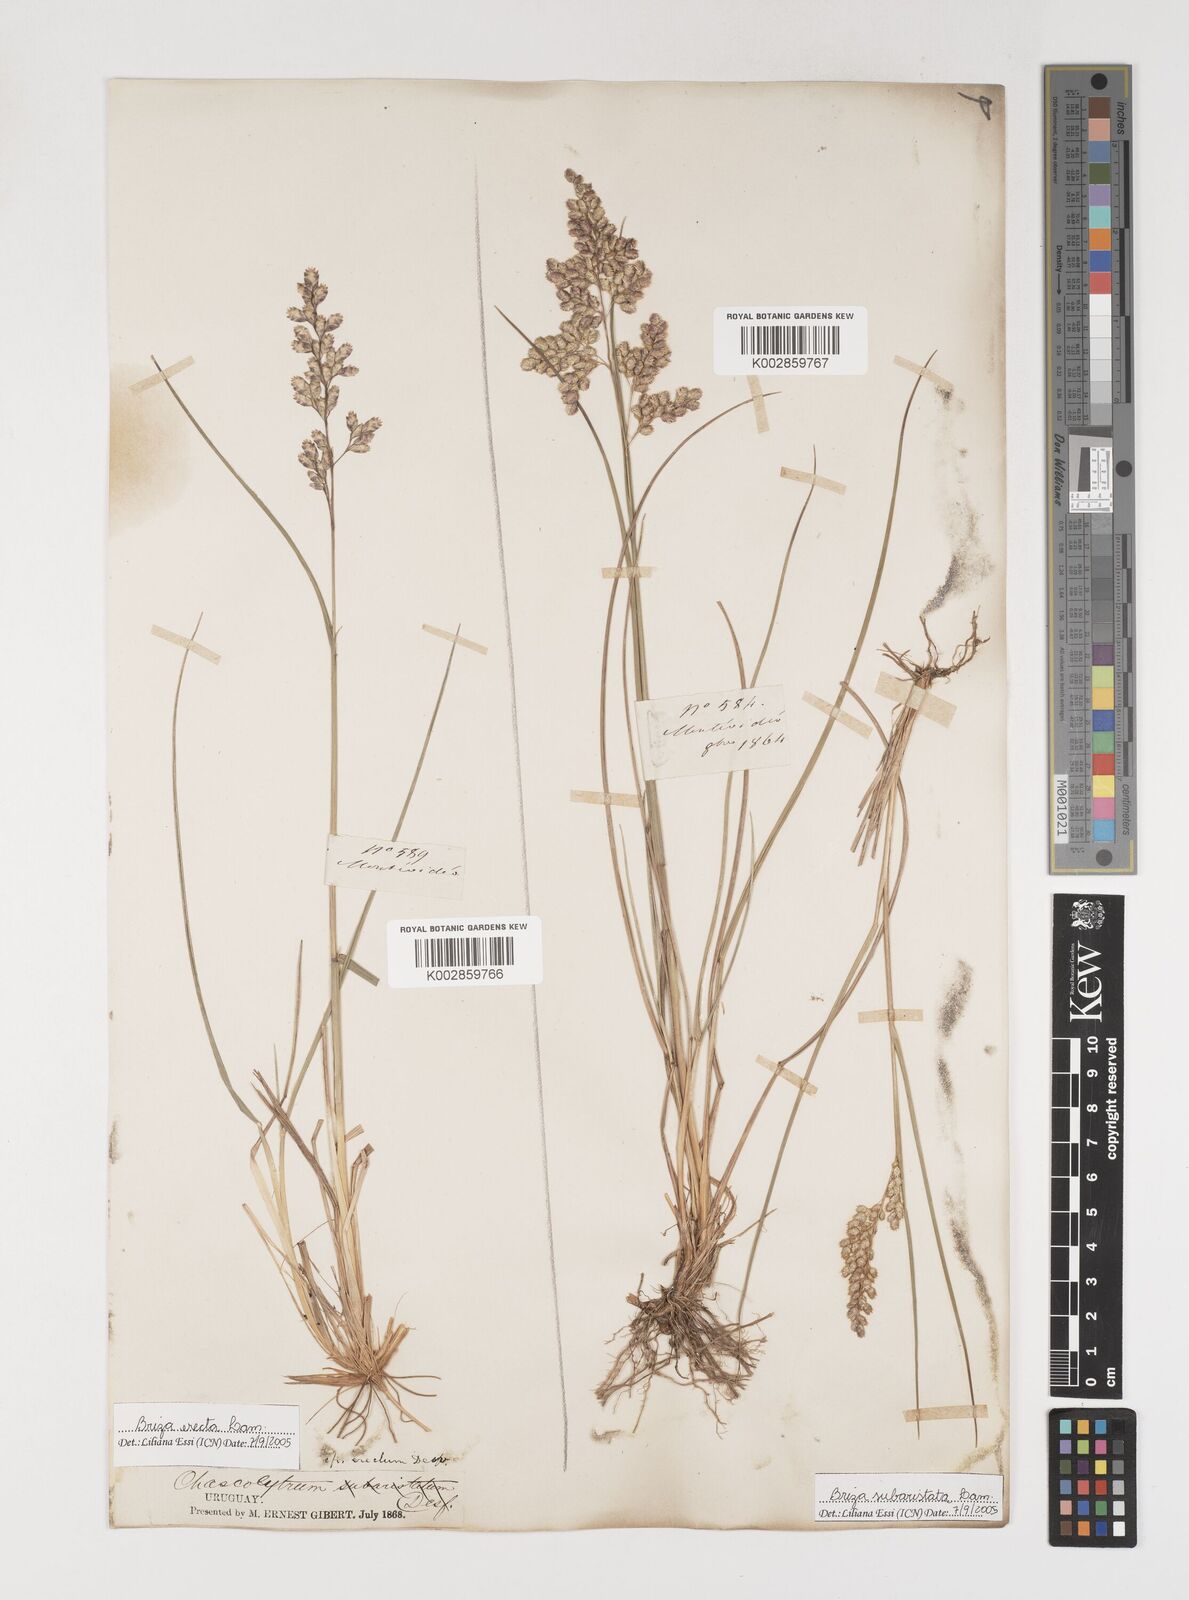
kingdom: Plantae
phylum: Tracheophyta
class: Liliopsida
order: Poales
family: Poaceae
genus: Chascolytrum
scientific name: Chascolytrum subaristatum
